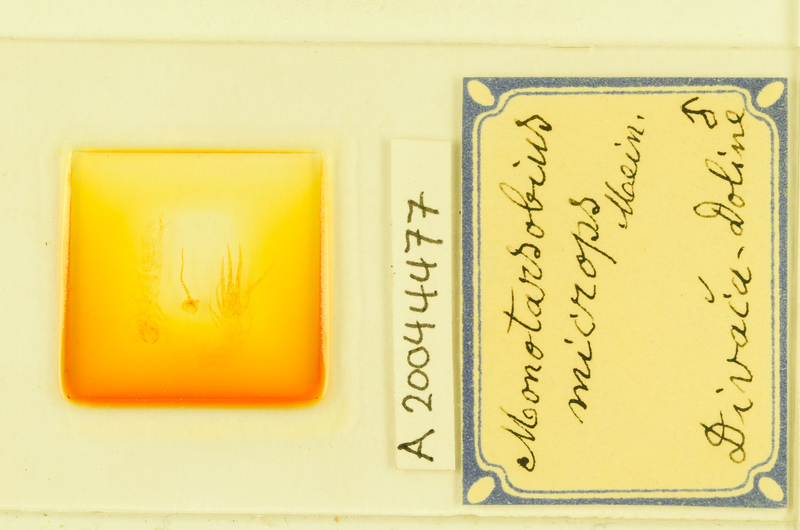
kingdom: Animalia
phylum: Arthropoda
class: Chilopoda
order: Lithobiomorpha
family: Lithobiidae
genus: Monotarsobius
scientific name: Monotarsobius microps
